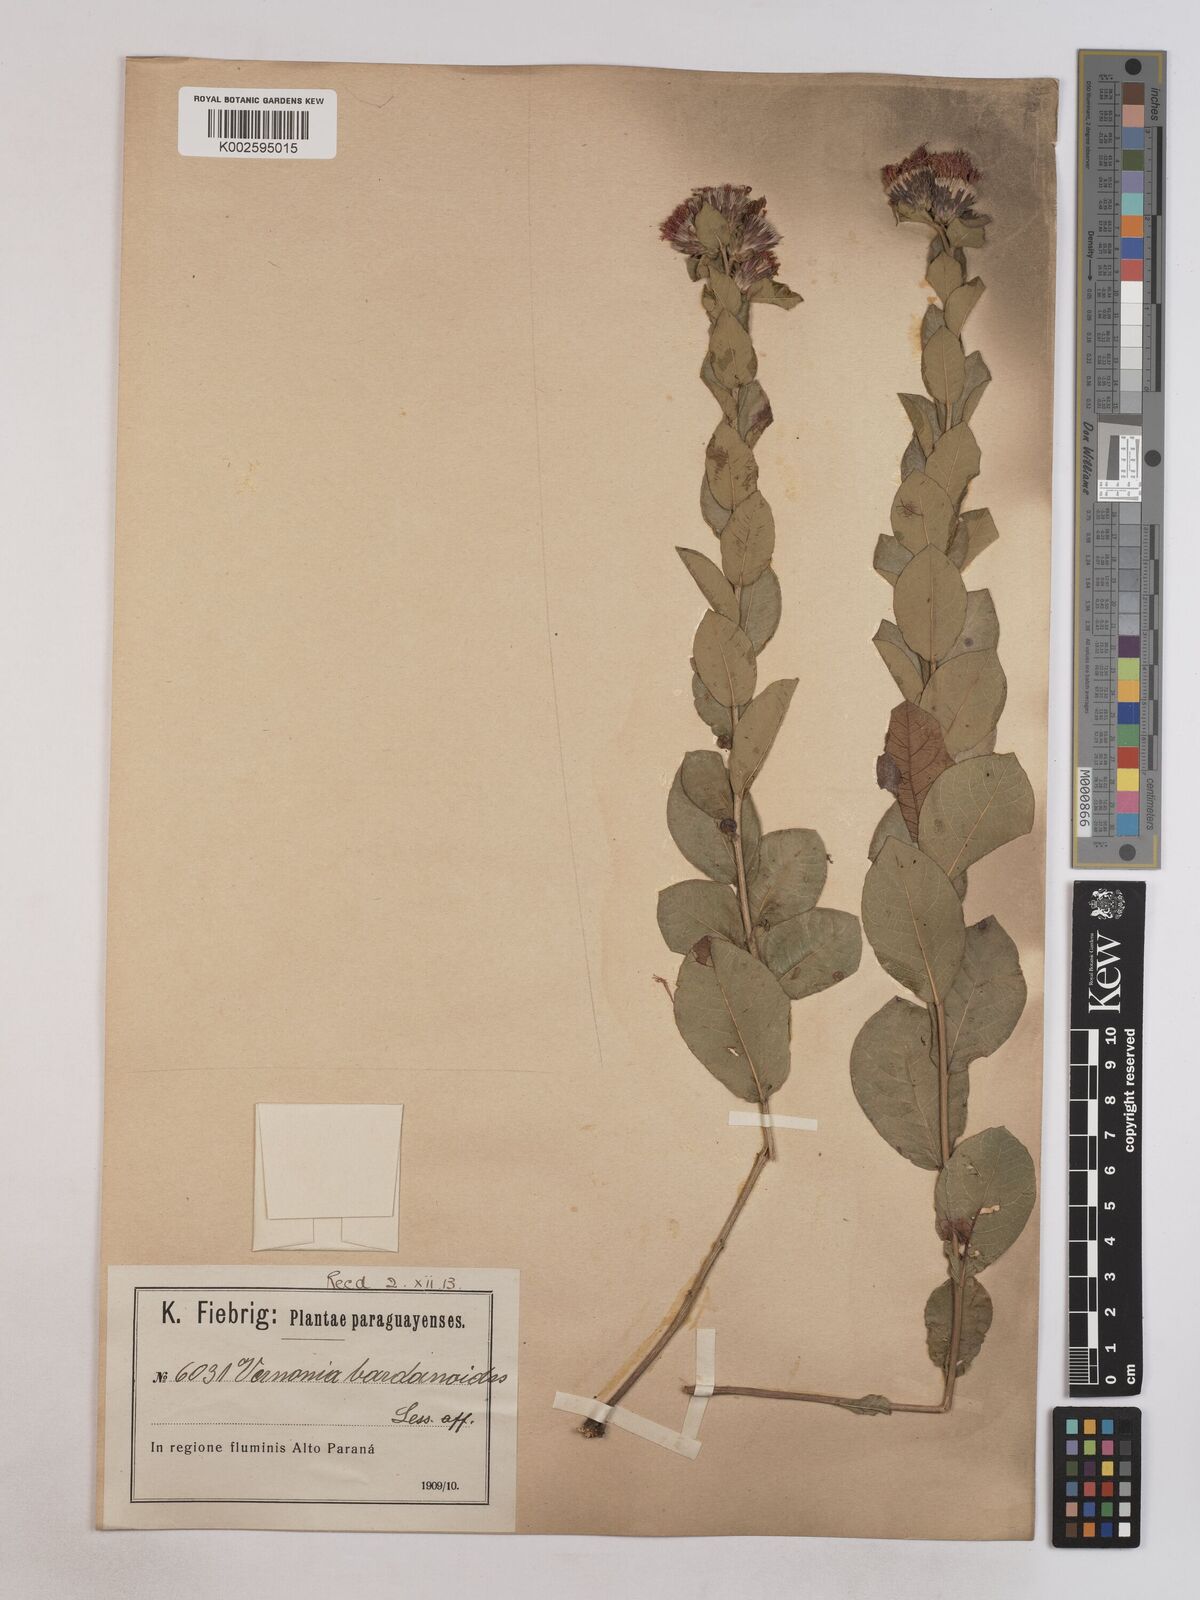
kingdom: Plantae
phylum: Tracheophyta
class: Magnoliopsida
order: Asterales
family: Asteraceae
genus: Lessingianthus
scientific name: Lessingianthus bardanioides
